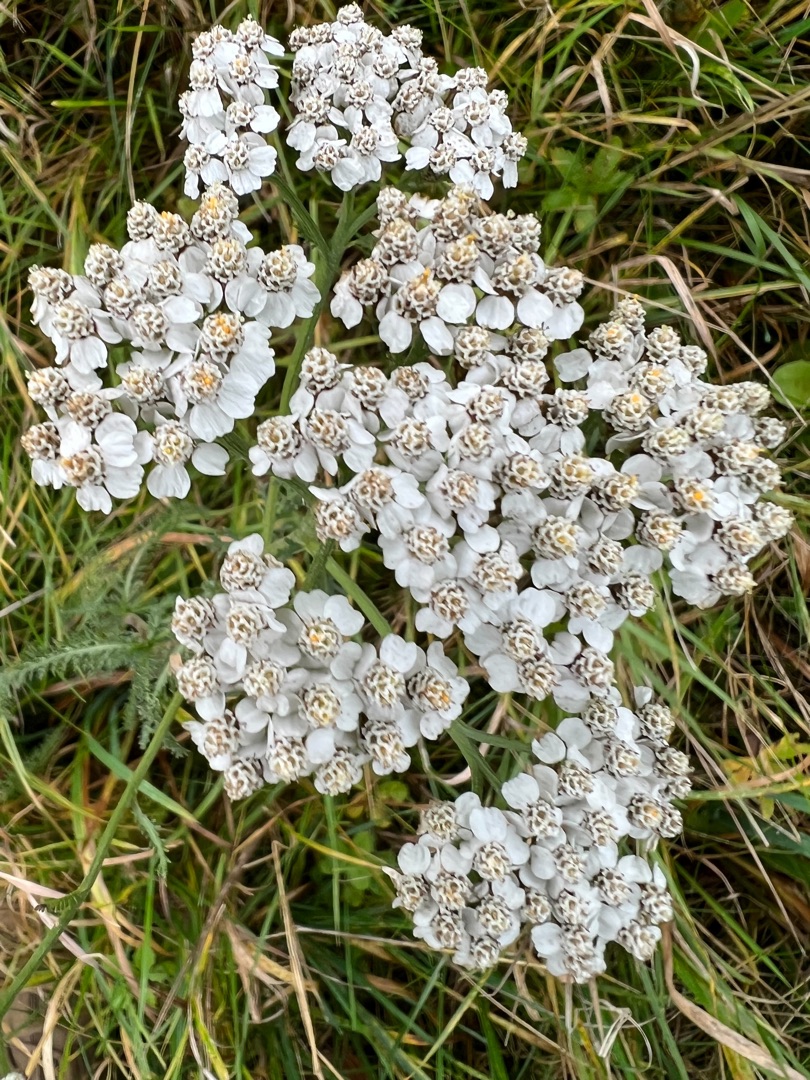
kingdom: Plantae
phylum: Tracheophyta
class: Magnoliopsida
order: Asterales
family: Asteraceae
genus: Achillea
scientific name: Achillea millefolium
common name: Almindelig røllike
